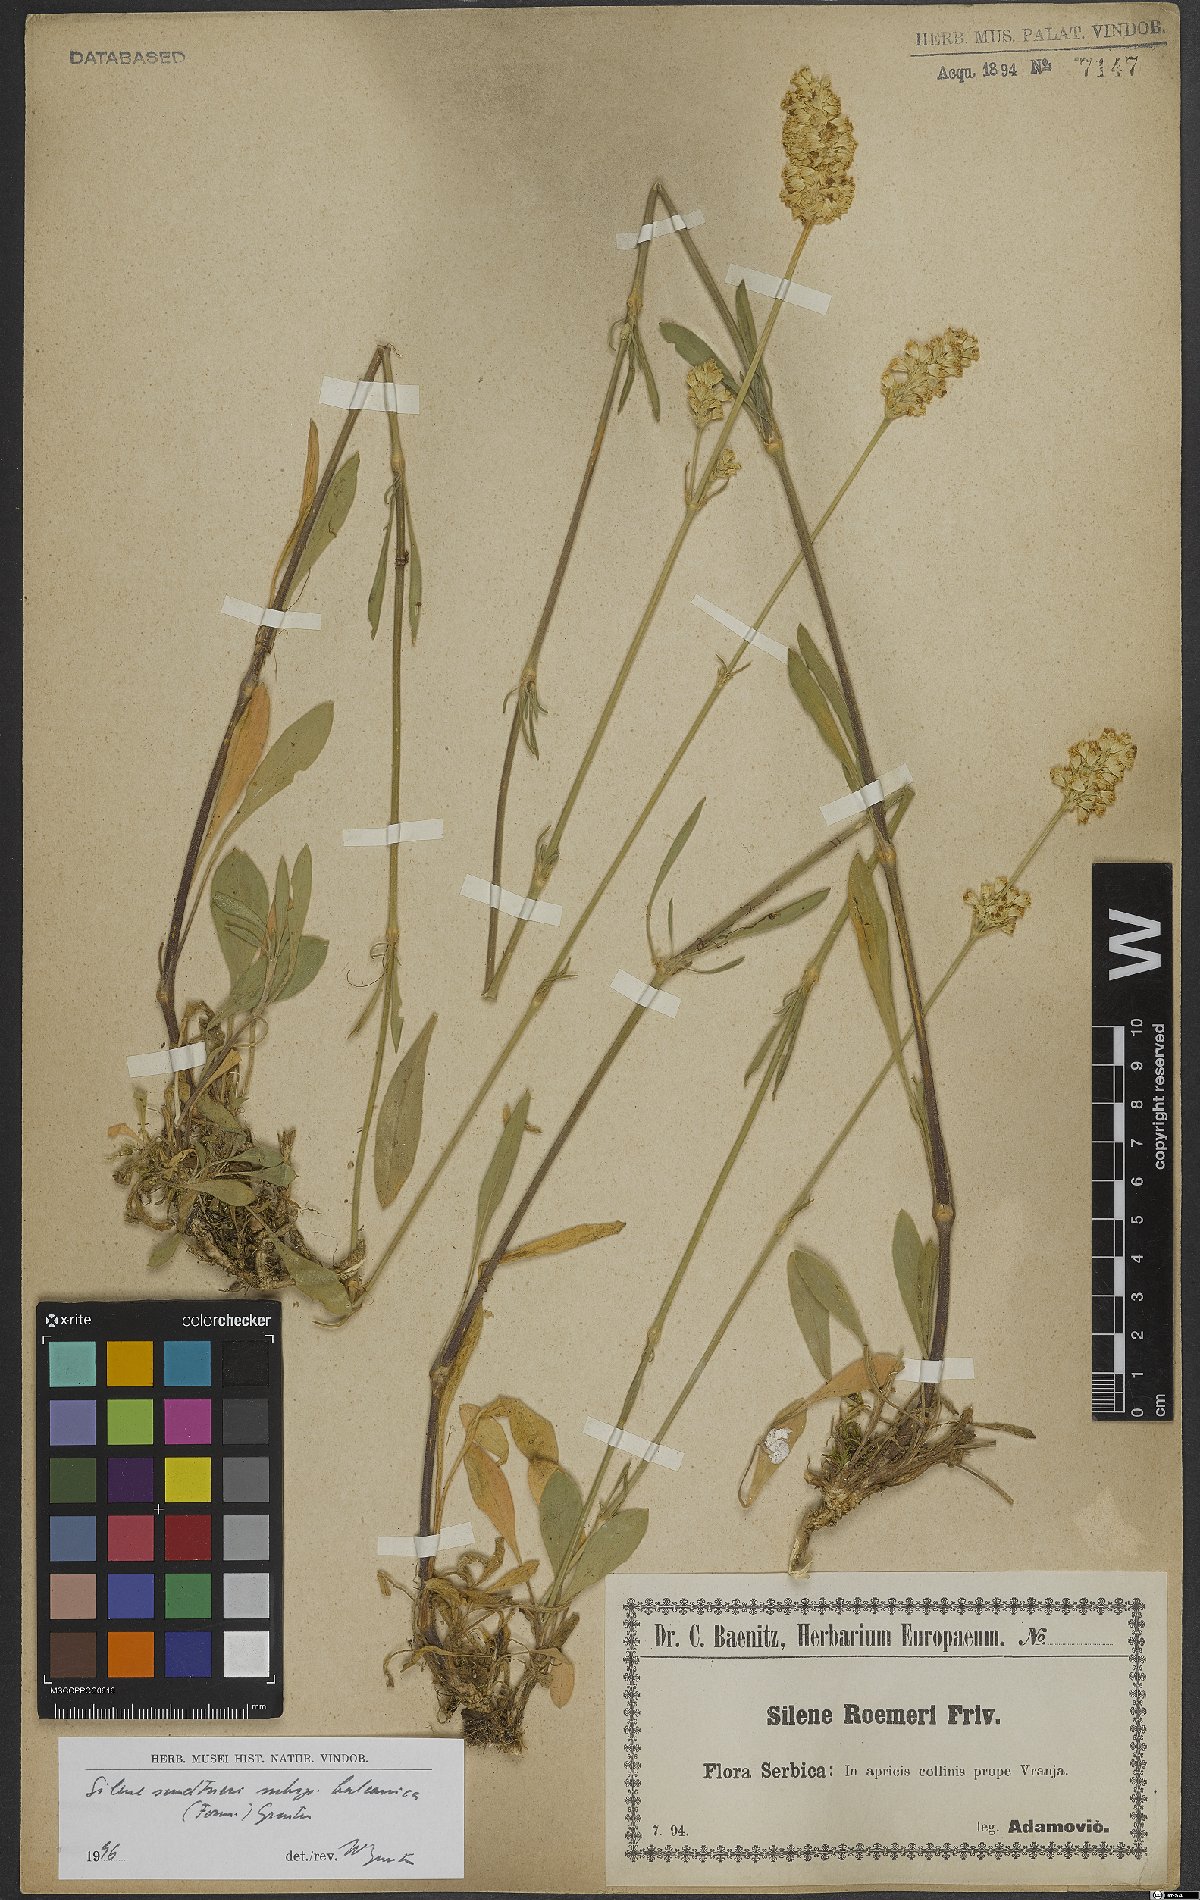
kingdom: Plantae
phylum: Tracheophyta
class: Magnoliopsida
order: Caryophyllales
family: Caryophyllaceae
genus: Silene
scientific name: Silene sendtneri
